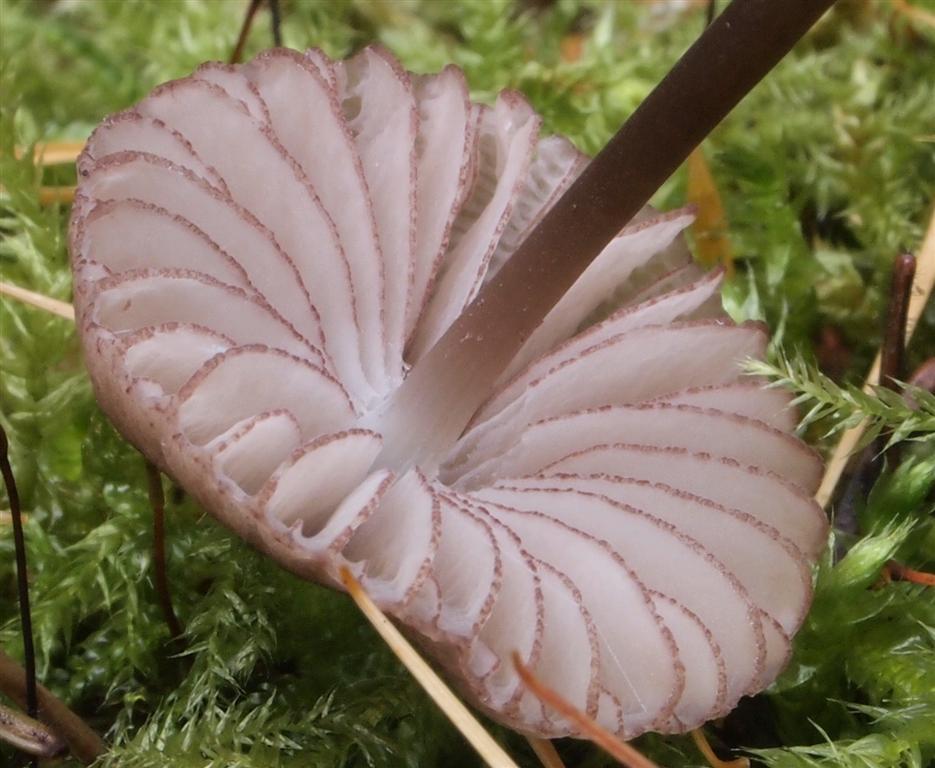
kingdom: Fungi
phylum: Basidiomycota
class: Agaricomycetes
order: Agaricales
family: Mycenaceae
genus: Mycena
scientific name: Mycena purpureofusca
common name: purpur-huesvamp
